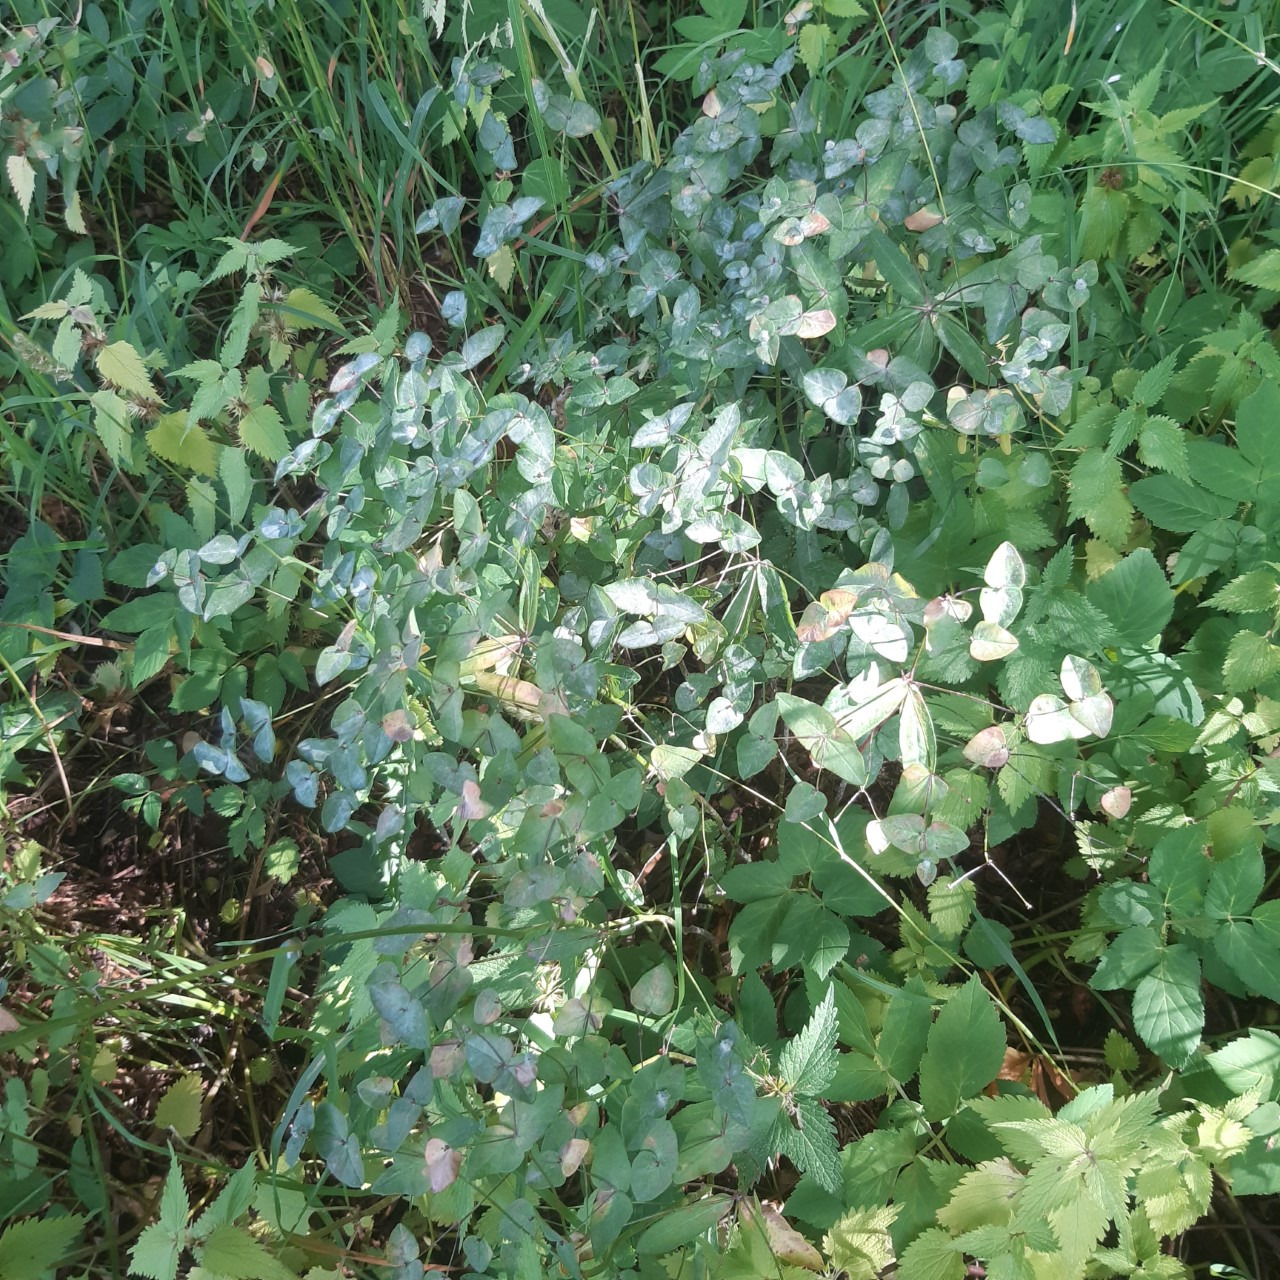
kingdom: Plantae
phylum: Tracheophyta
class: Magnoliopsida
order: Malpighiales
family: Euphorbiaceae
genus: Euphorbia
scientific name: Euphorbia dulcis
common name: Knold-vortemælk
